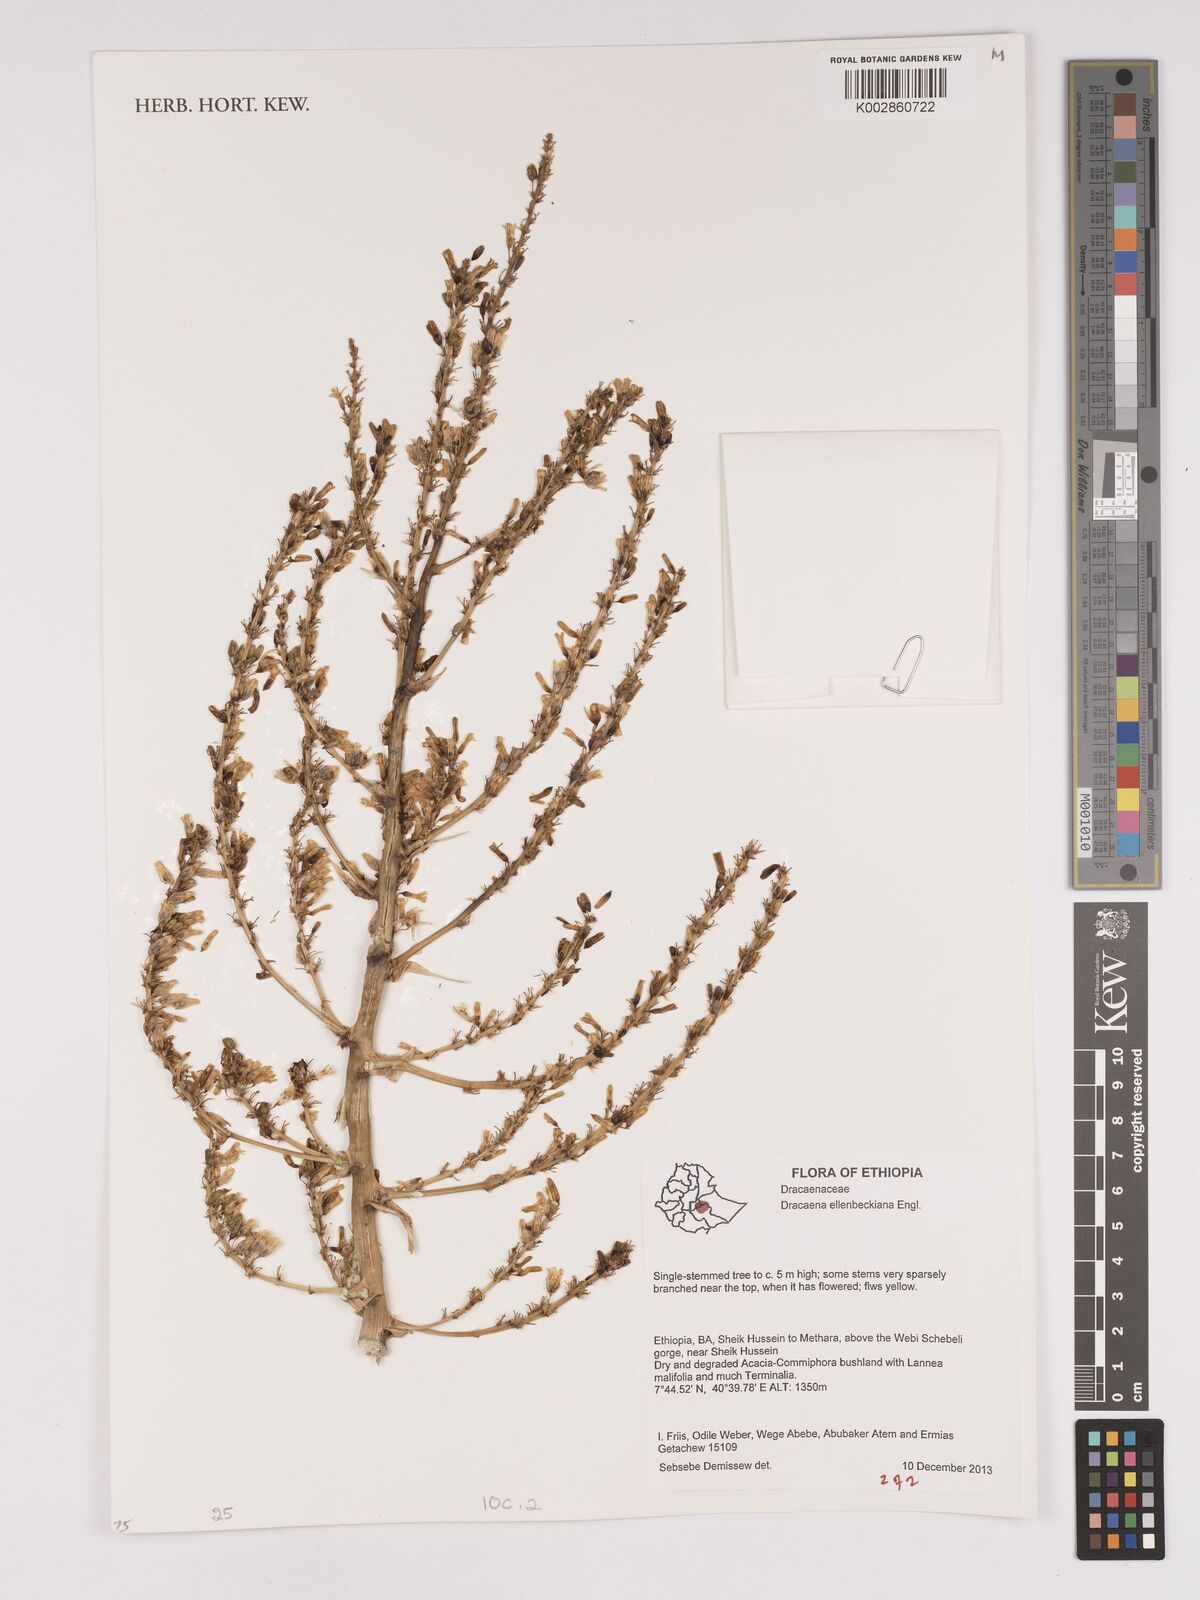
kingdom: Plantae
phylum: Tracheophyta
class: Liliopsida
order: Asparagales
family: Asparagaceae
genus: Dracaena
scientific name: Dracaena ellenbeckiana
